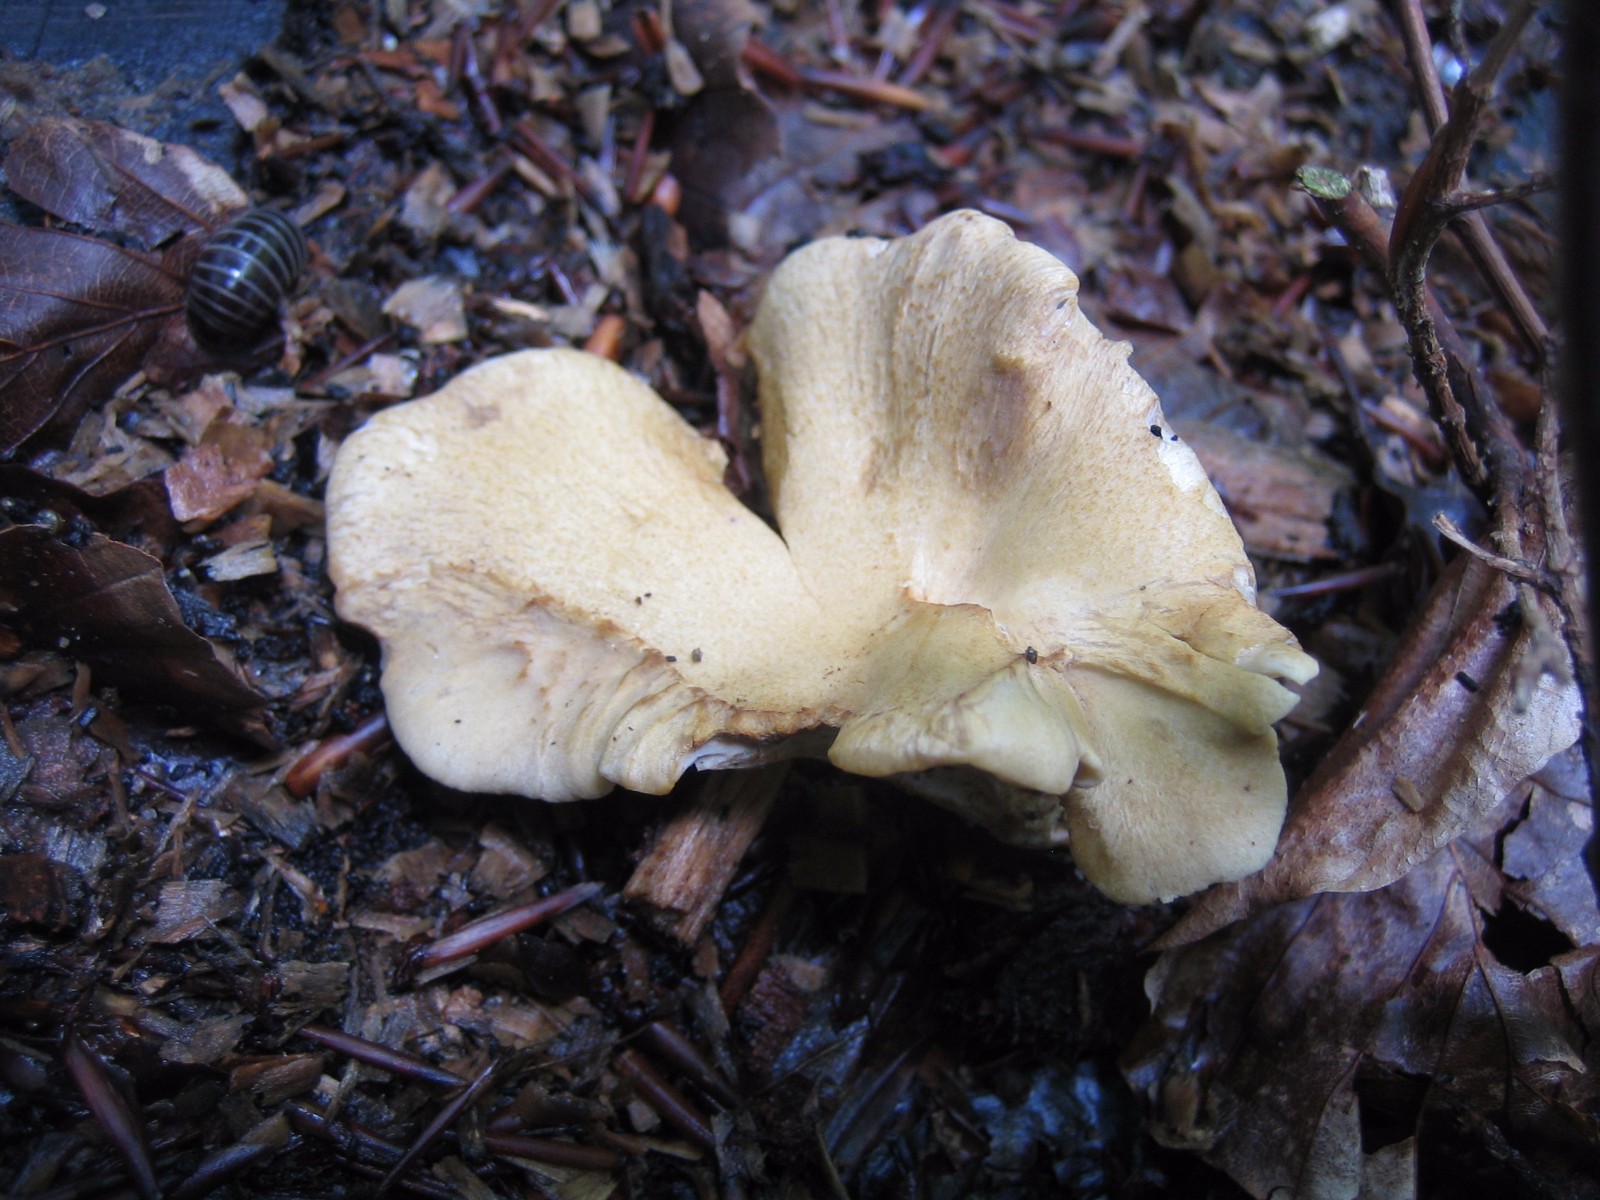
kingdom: Fungi
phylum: Basidiomycota
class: Agaricomycetes
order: Polyporales
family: Polyporaceae
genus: Cerioporus
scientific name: Cerioporus varius
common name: foranderlig stilkporesvamp
